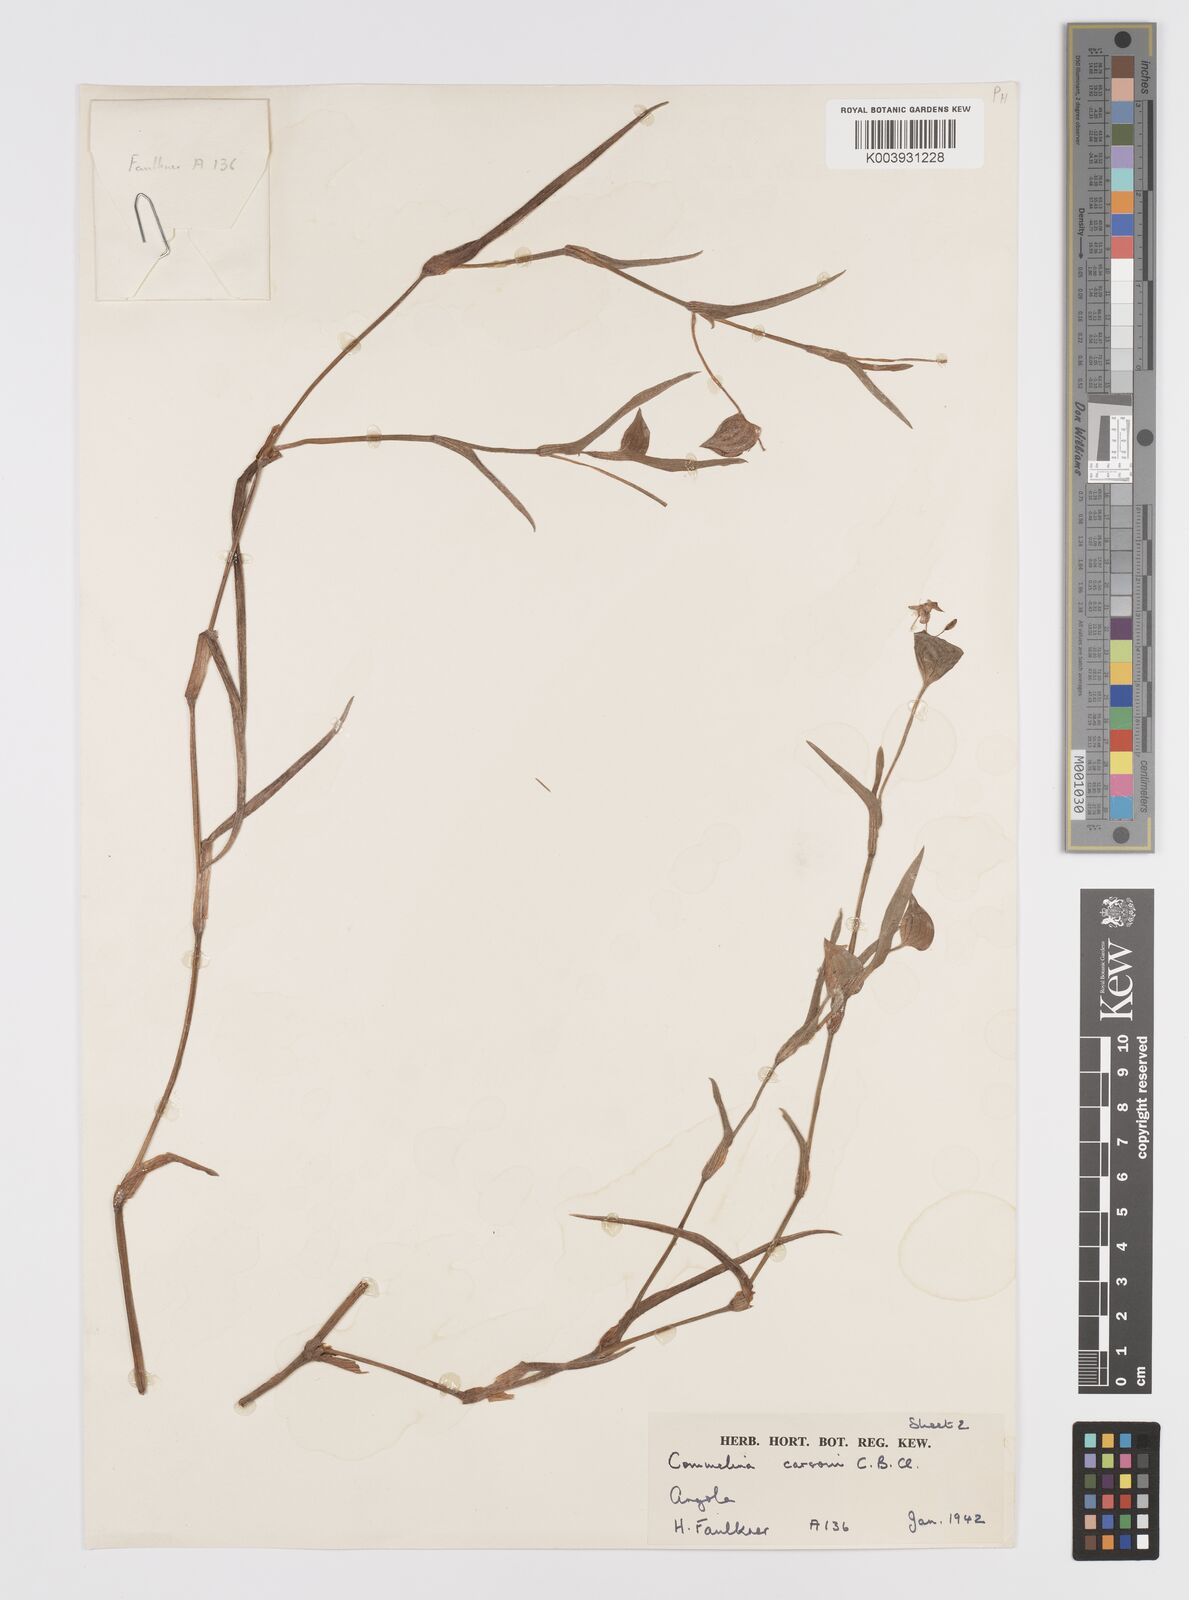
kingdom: Plantae
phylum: Tracheophyta
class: Liliopsida
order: Commelinales
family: Commelinaceae
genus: Commelina
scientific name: Commelina bequaertii
